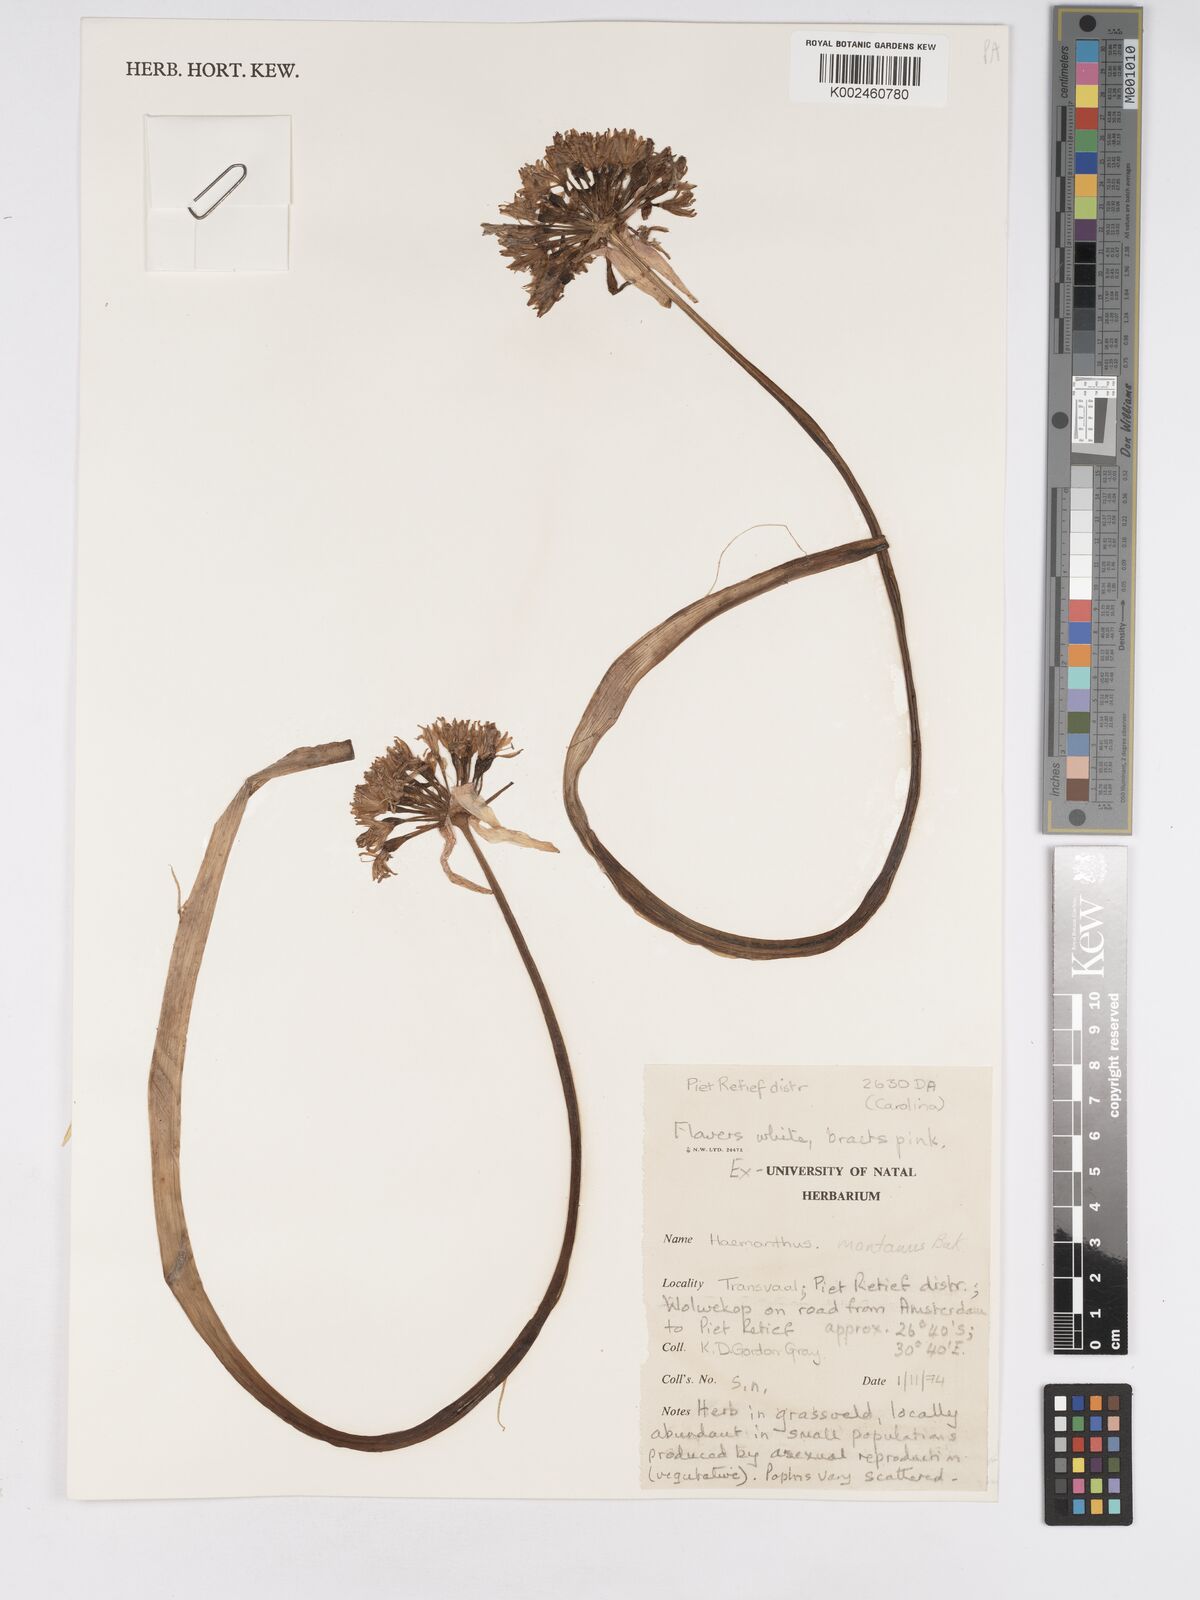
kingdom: Plantae
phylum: Tracheophyta
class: Liliopsida
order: Asparagales
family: Amaryllidaceae
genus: Haemanthus
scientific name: Haemanthus montanus
